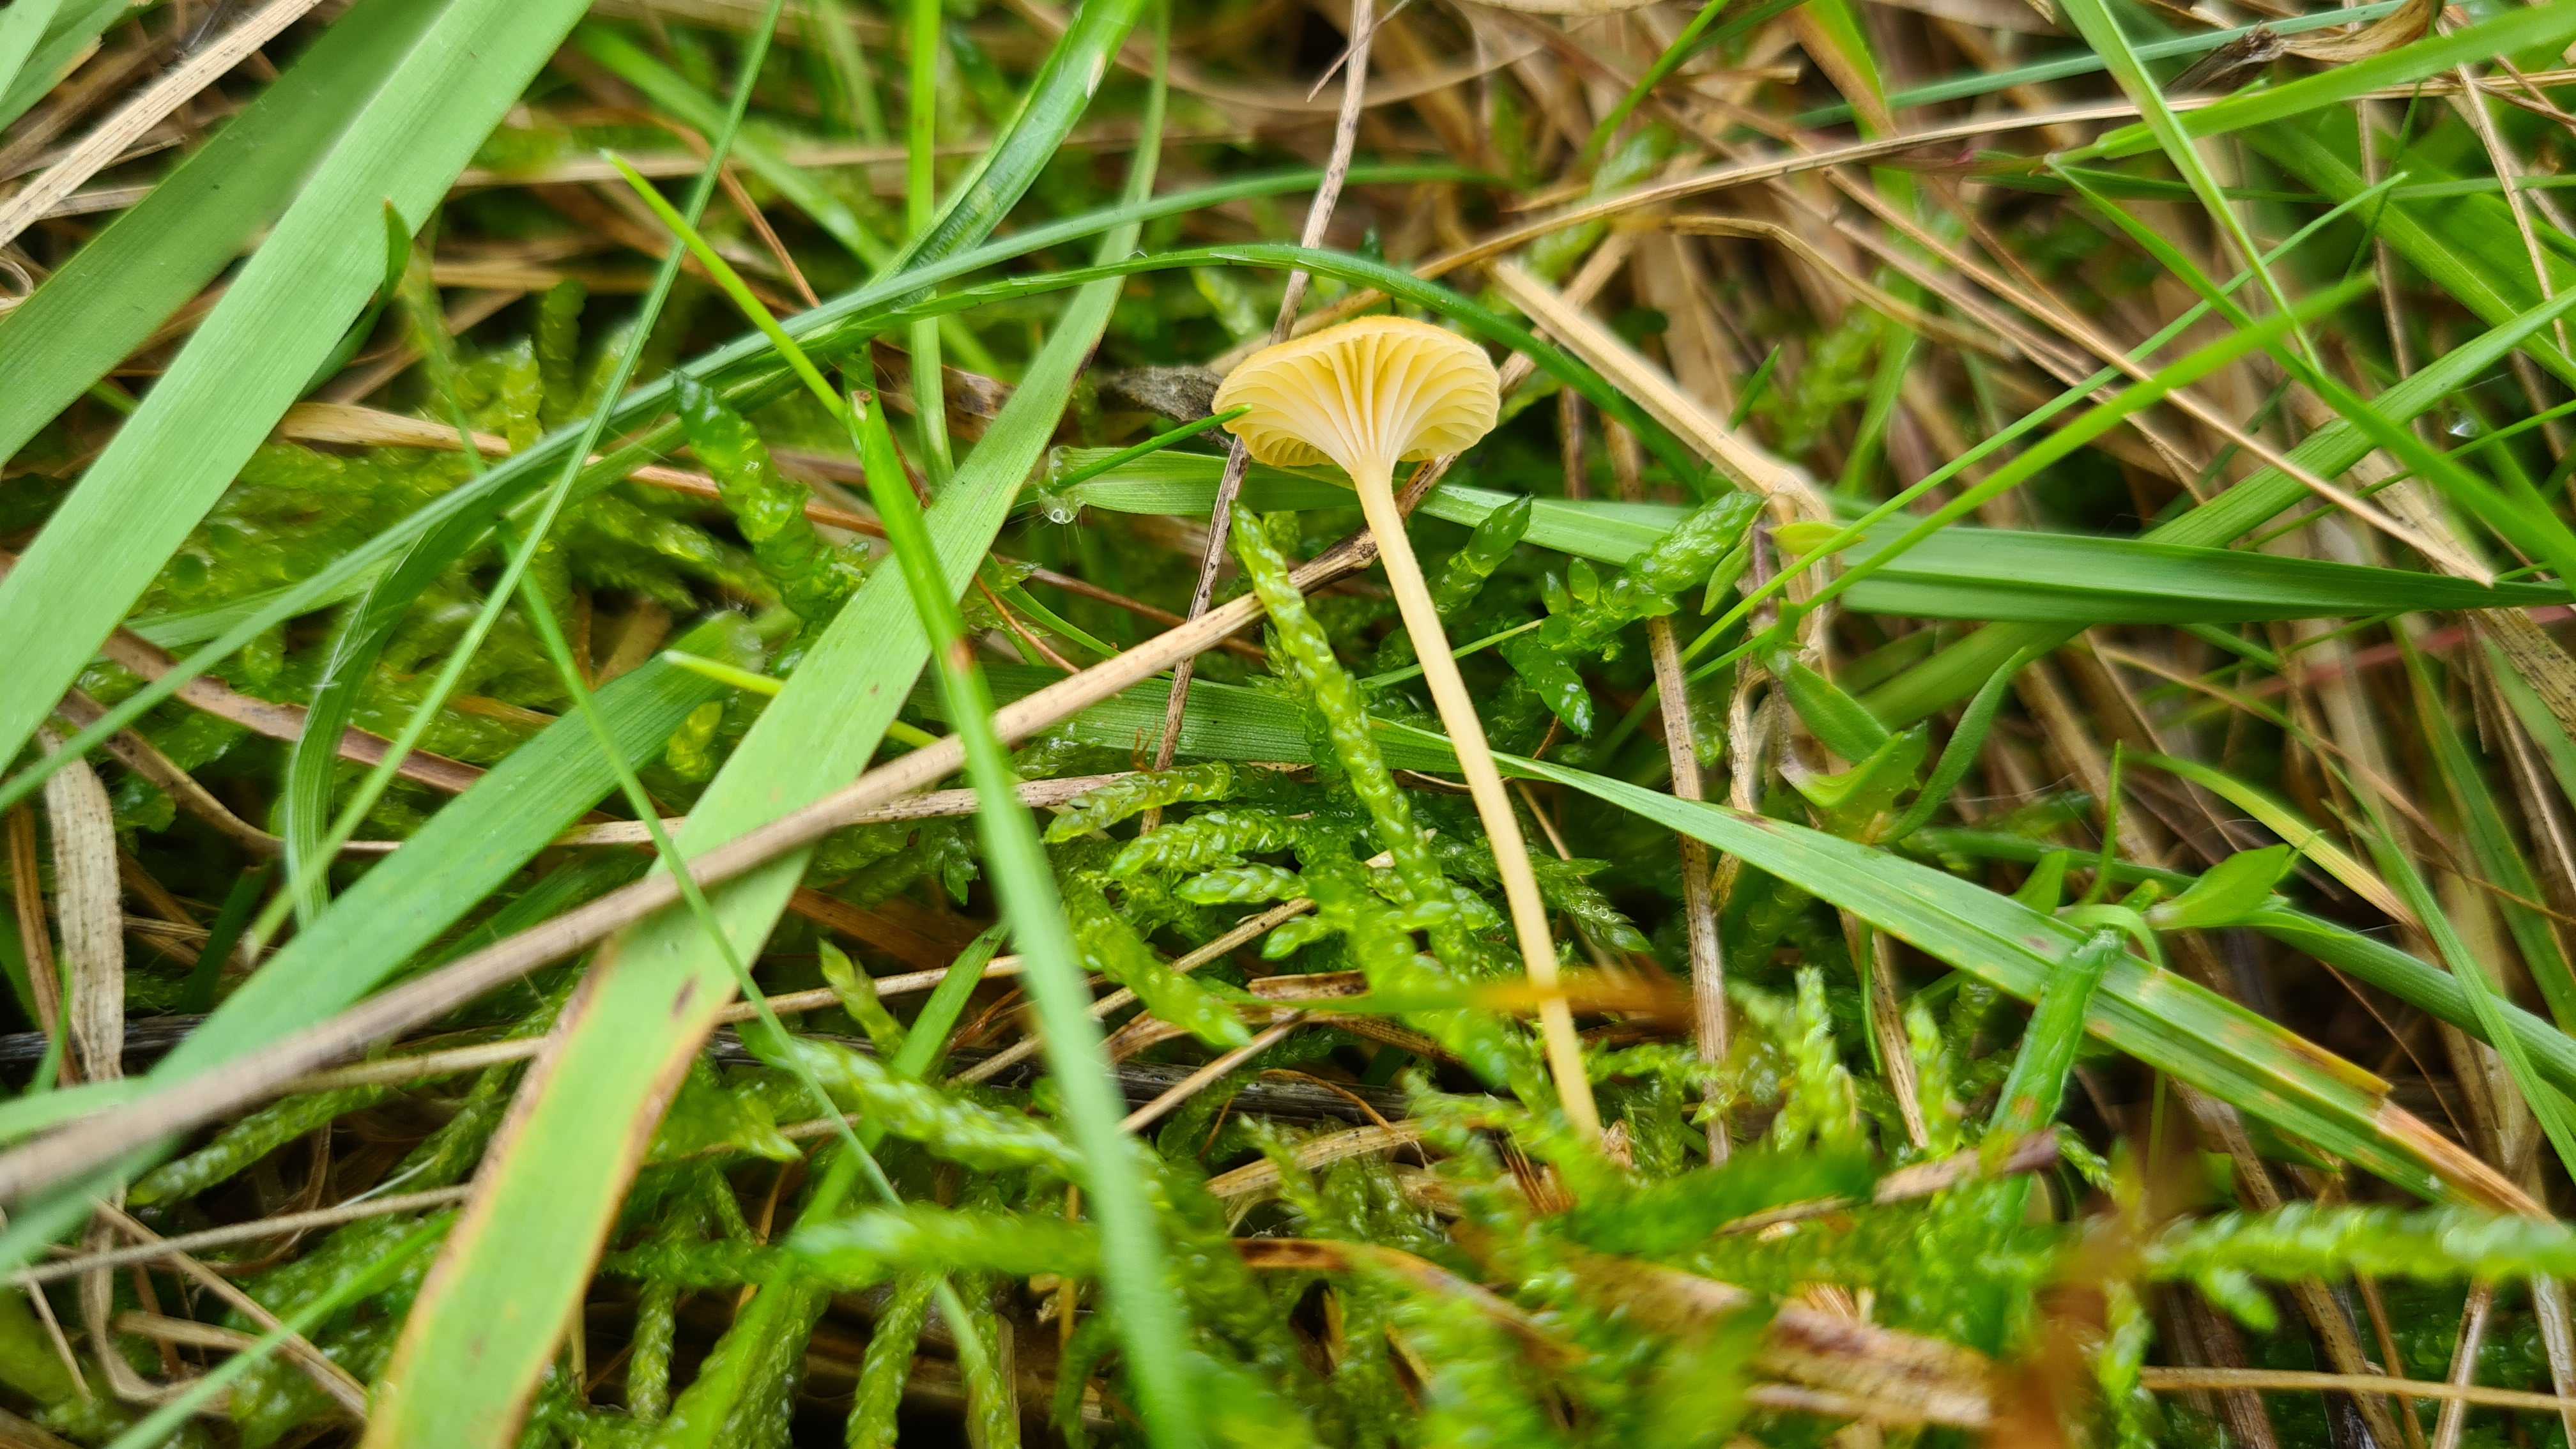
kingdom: Fungi
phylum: Basidiomycota
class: Agaricomycetes
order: Hymenochaetales
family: Rickenellaceae
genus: Rickenella
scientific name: Rickenella fibula
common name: orange mosnavlehat
